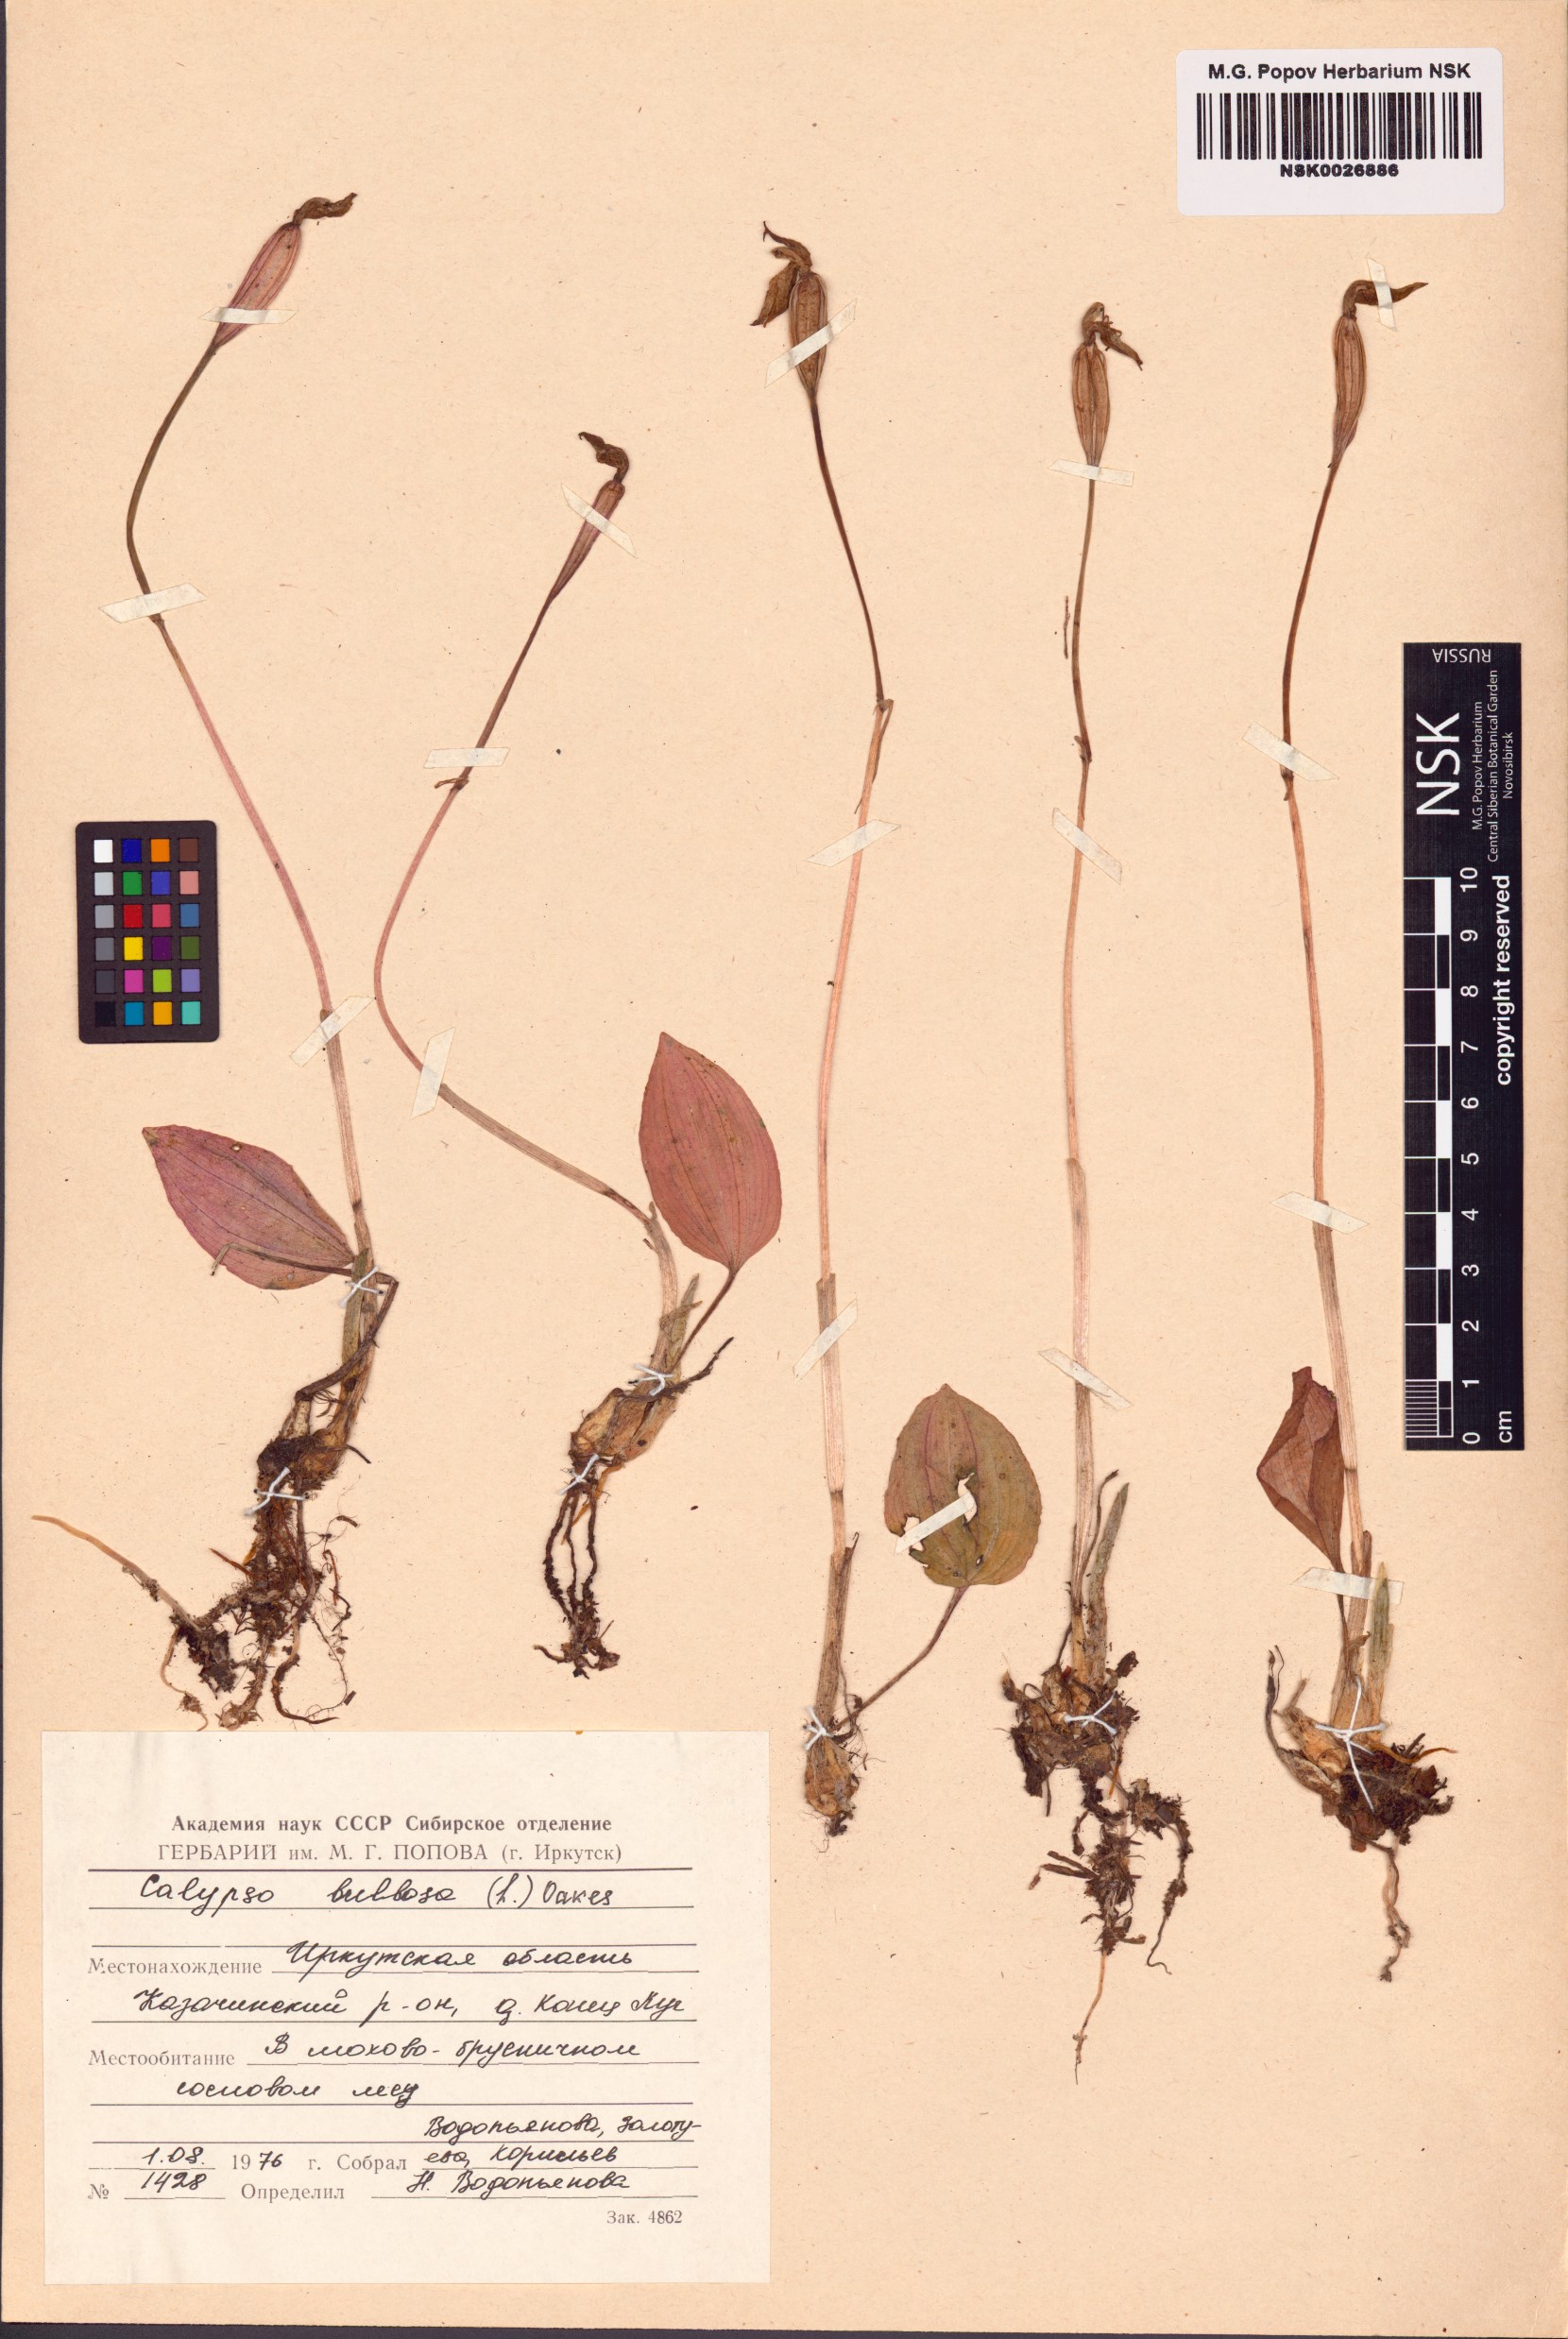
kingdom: Plantae
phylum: Tracheophyta
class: Liliopsida
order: Asparagales
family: Orchidaceae
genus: Calypso
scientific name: Calypso bulbosa
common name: Calypso
